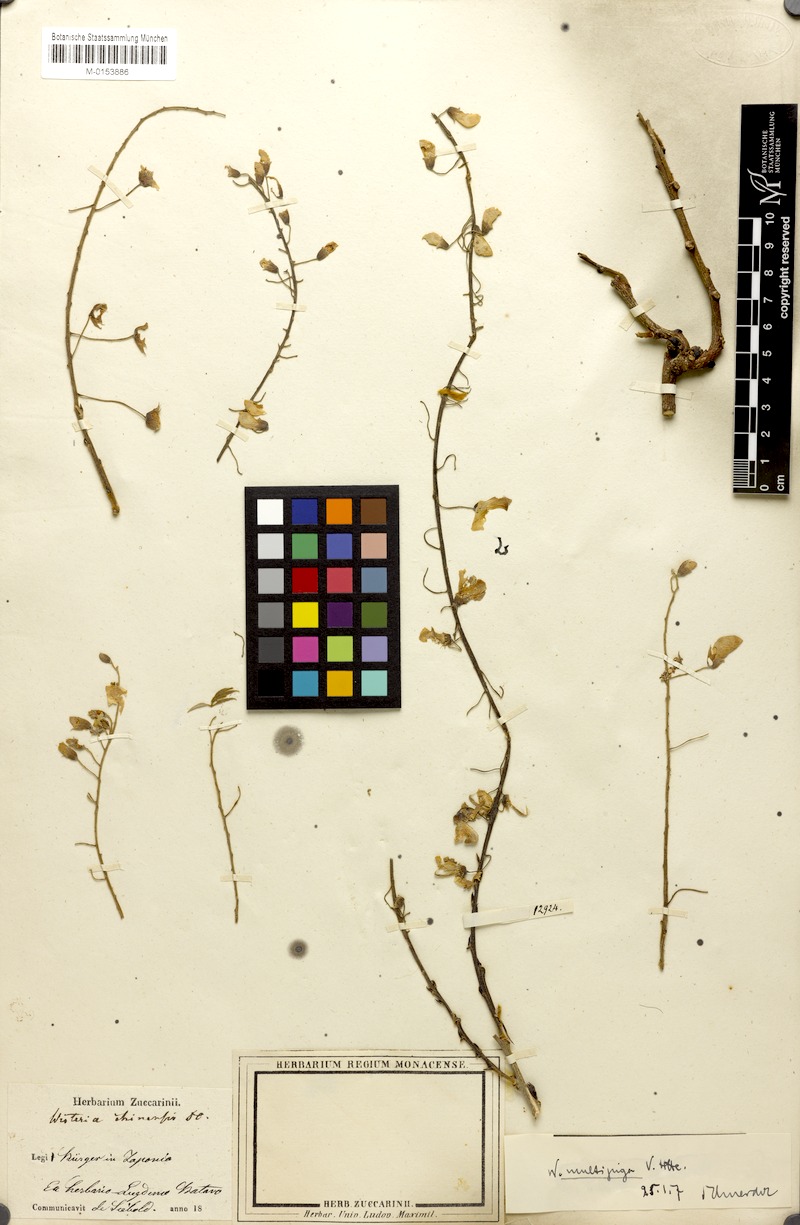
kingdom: Plantae
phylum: Tracheophyta
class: Magnoliopsida
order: Fabales
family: Fabaceae
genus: Wisteria
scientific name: Wisteria floribunda
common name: Japanese wisteria
